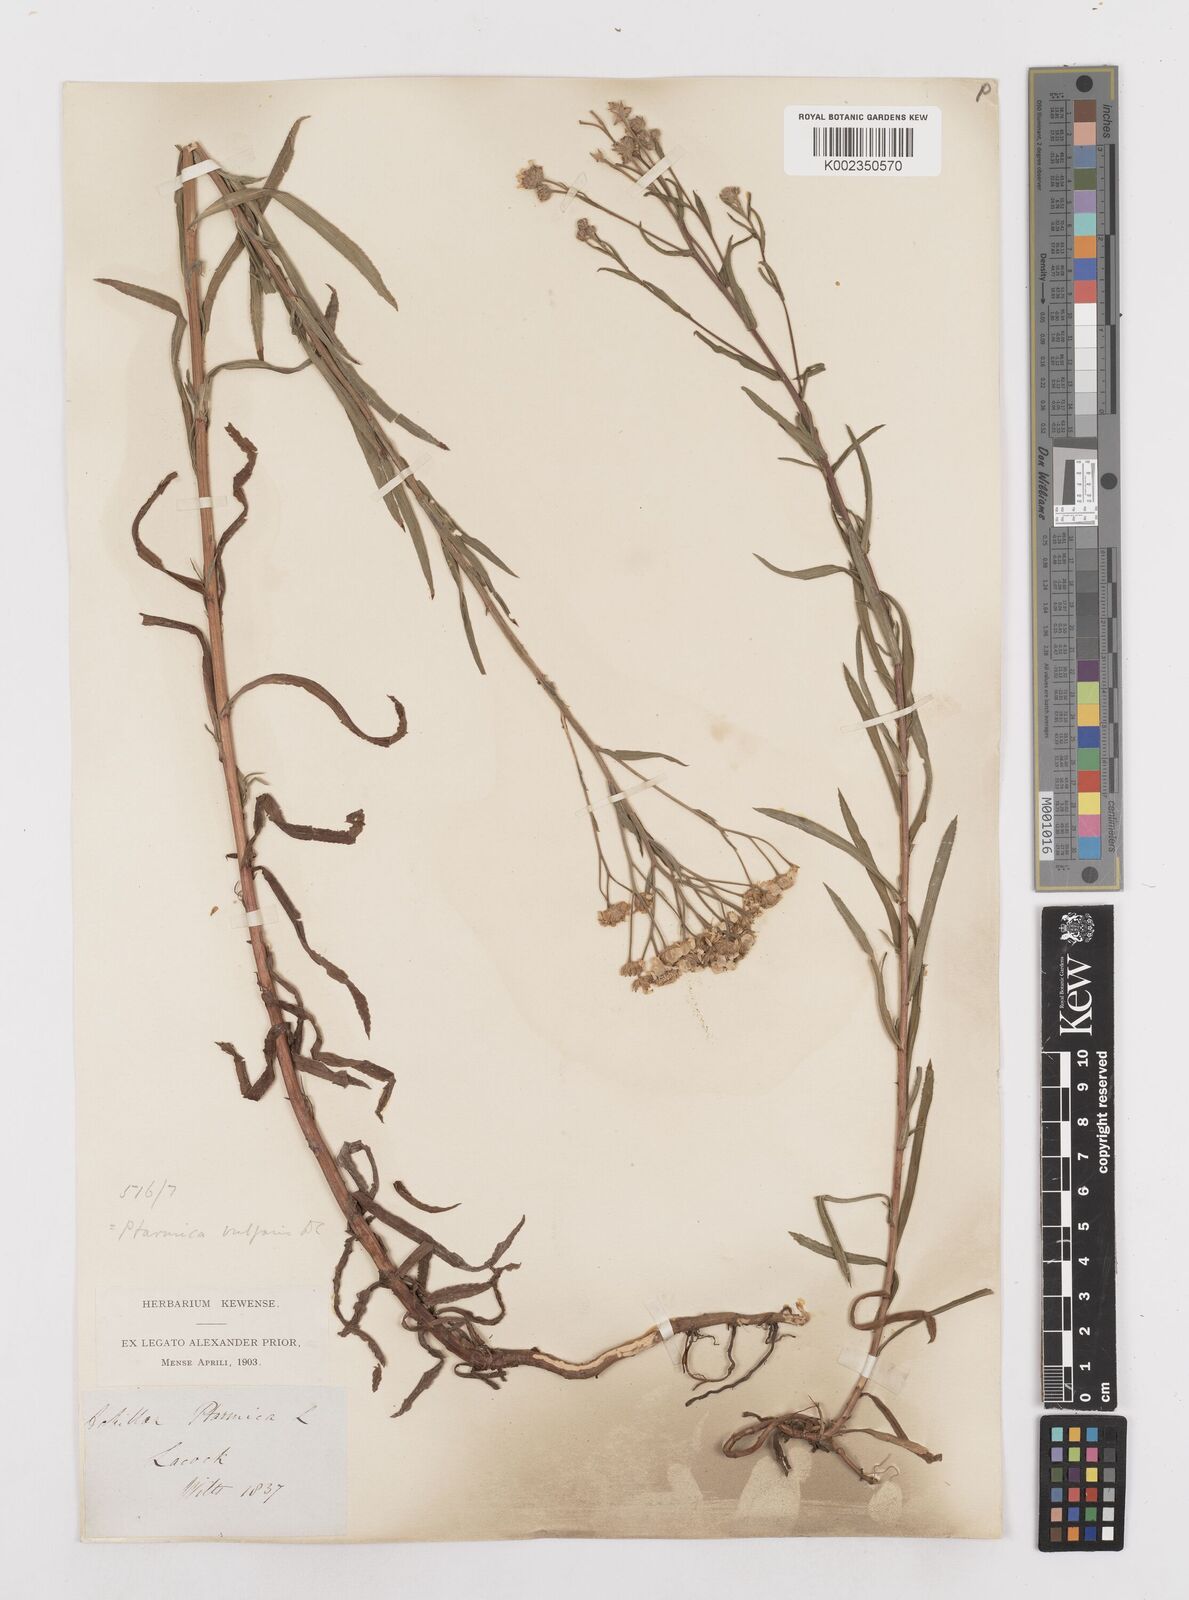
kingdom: Plantae
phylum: Tracheophyta
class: Magnoliopsida
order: Asterales
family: Asteraceae
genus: Achillea
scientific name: Achillea ptarmica
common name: Sneezeweed
